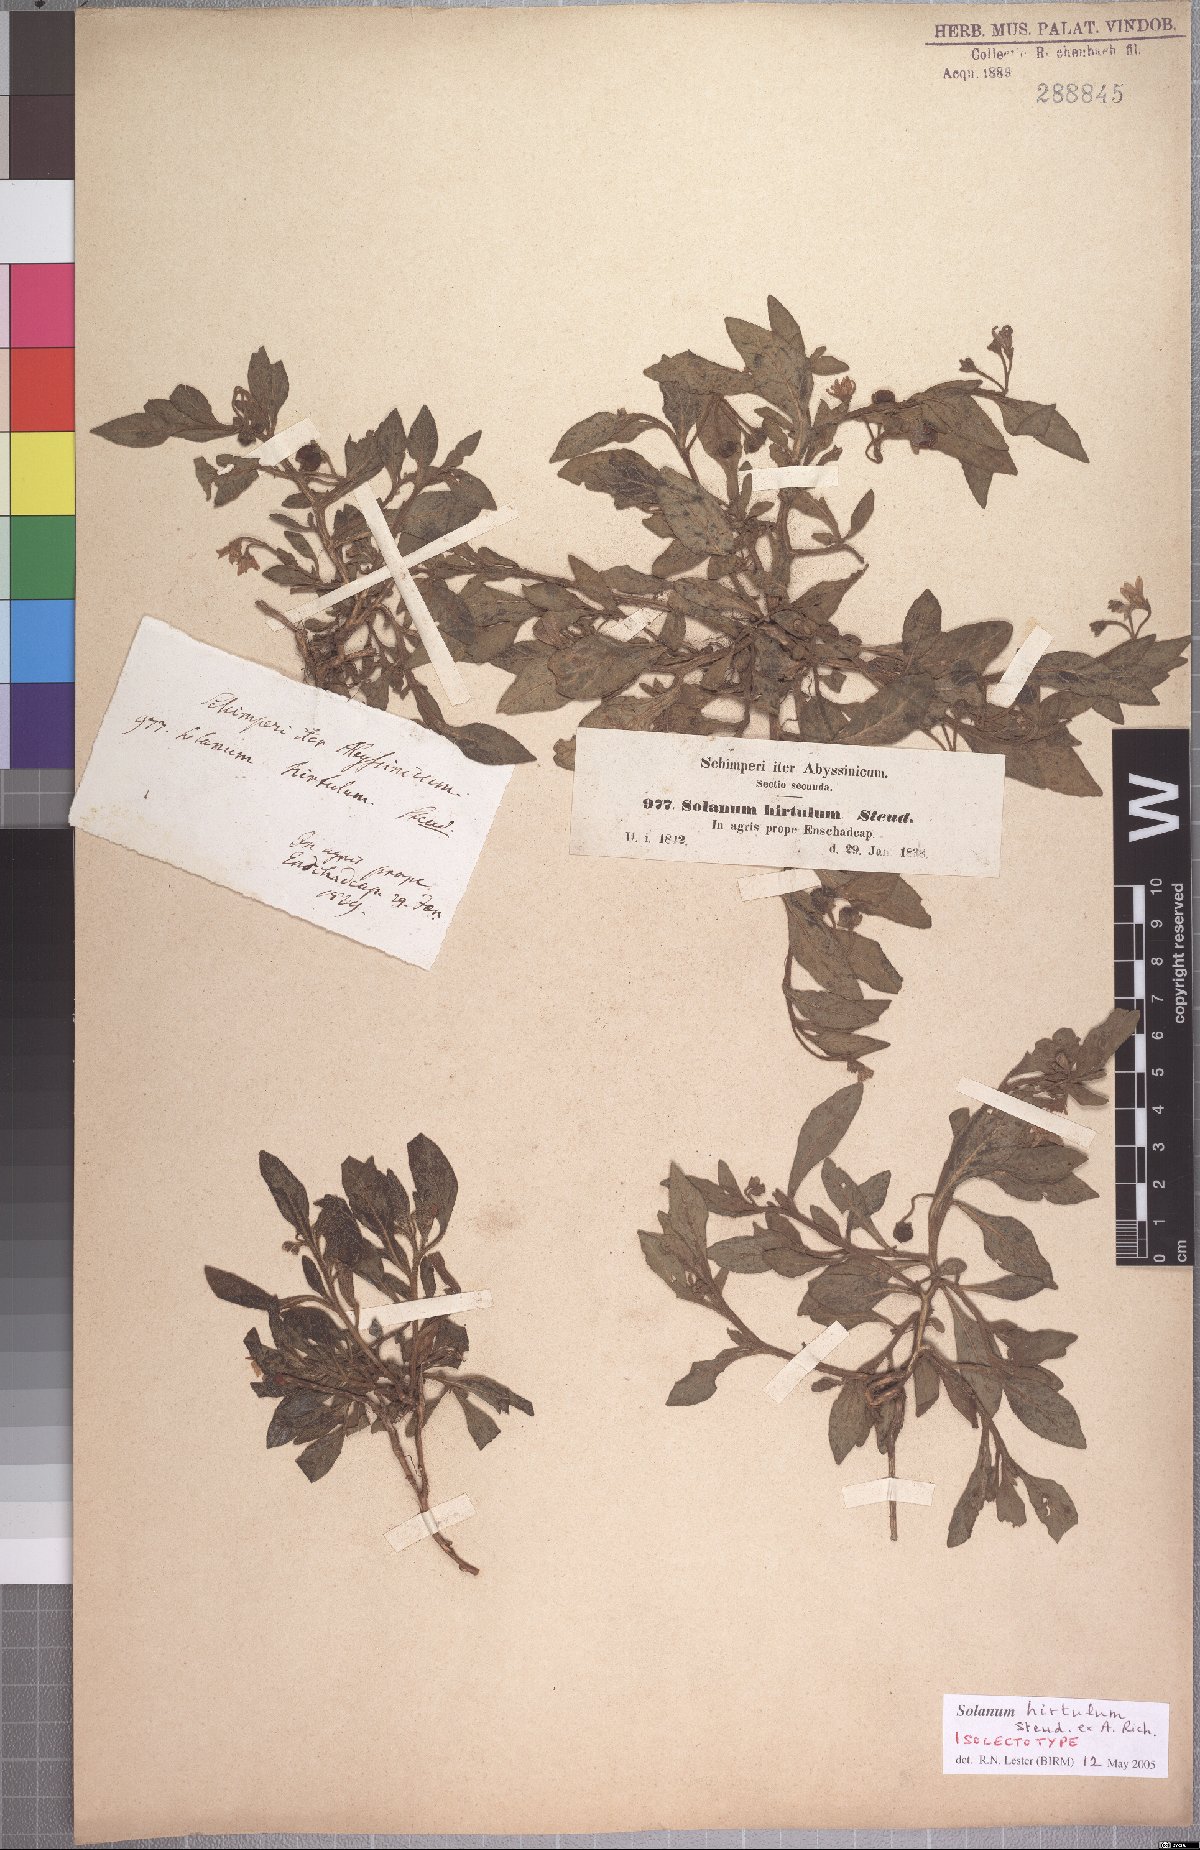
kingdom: Plantae
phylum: Tracheophyta
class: Magnoliopsida
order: Solanales
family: Solanaceae
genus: Solanum
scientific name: Solanum hirtulum
